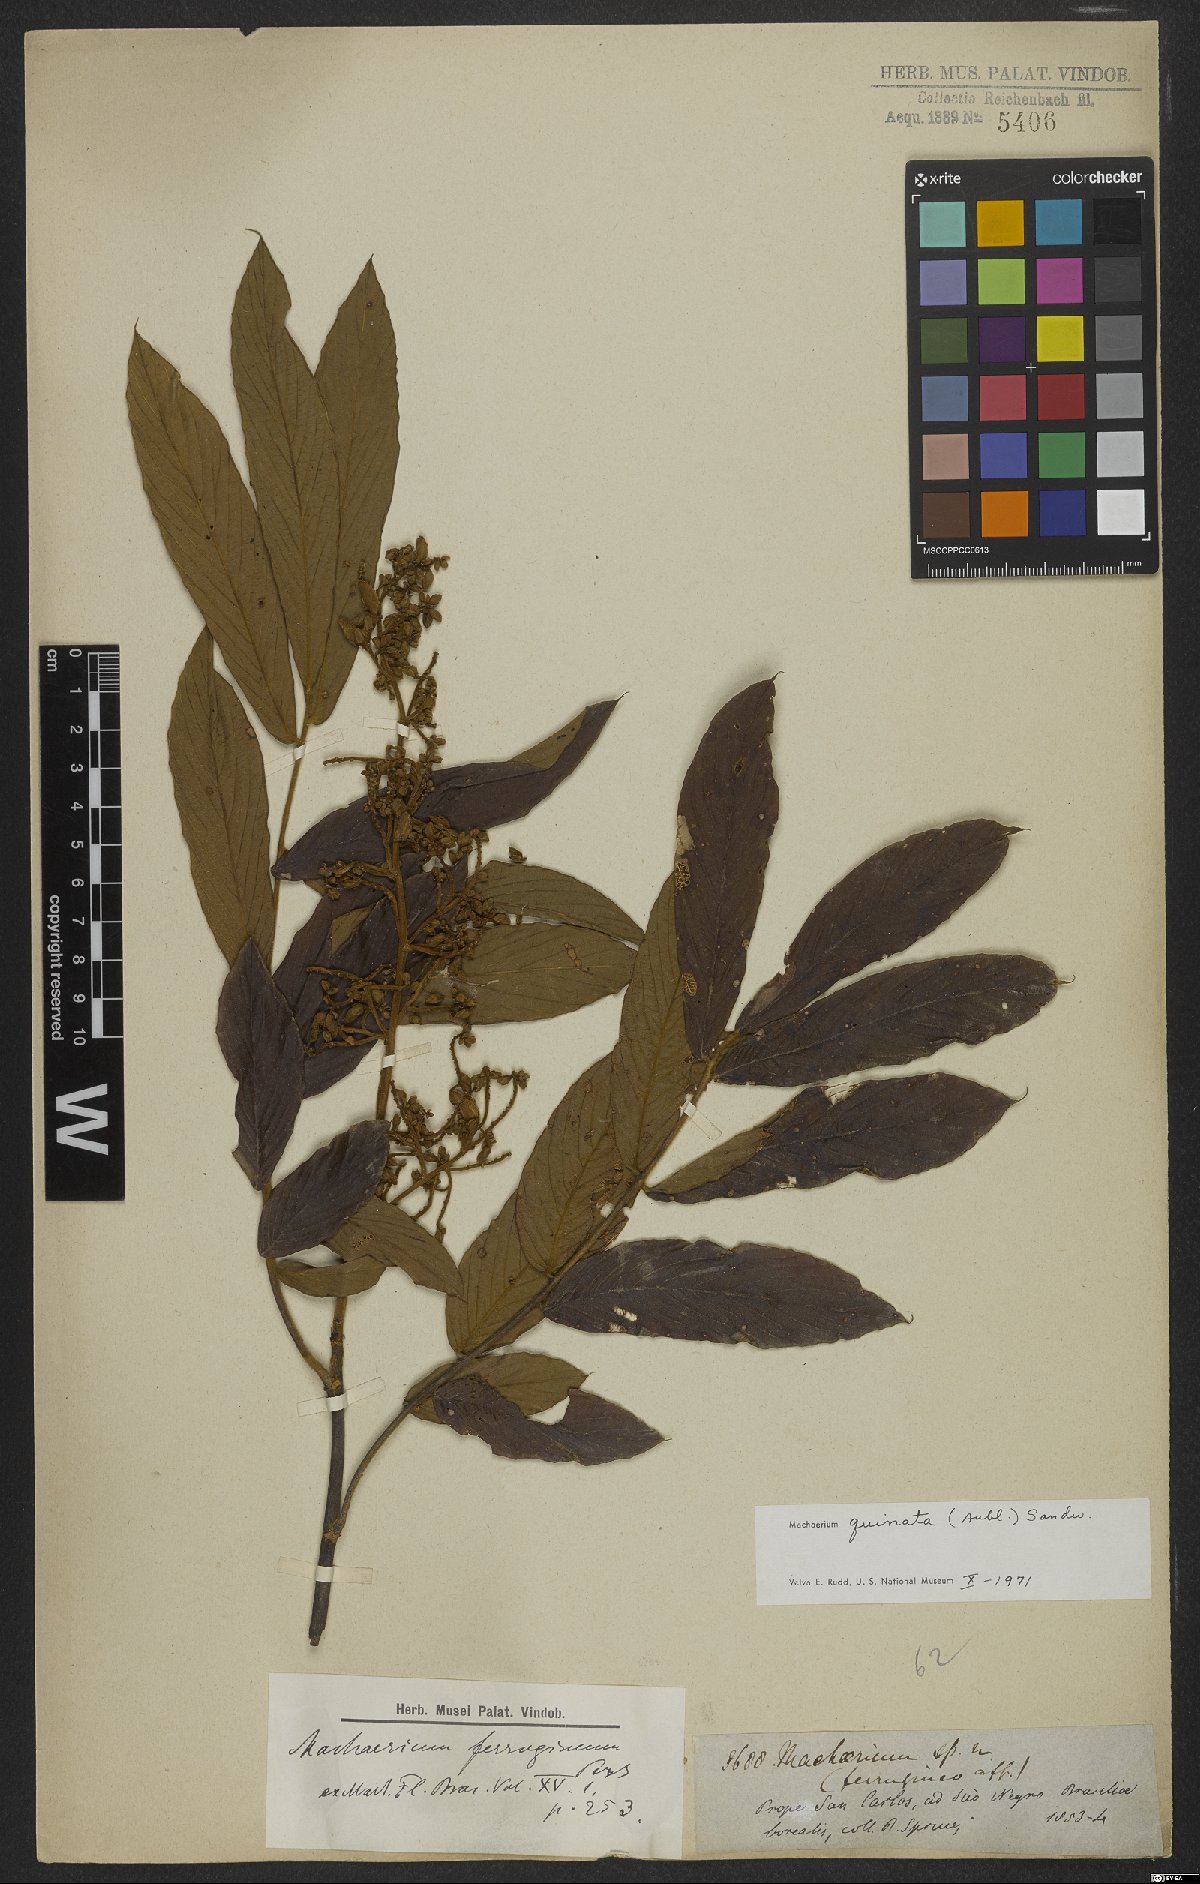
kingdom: Plantae
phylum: Tracheophyta
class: Magnoliopsida
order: Fabales
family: Fabaceae
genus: Machaerium
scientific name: Machaerium quinata
